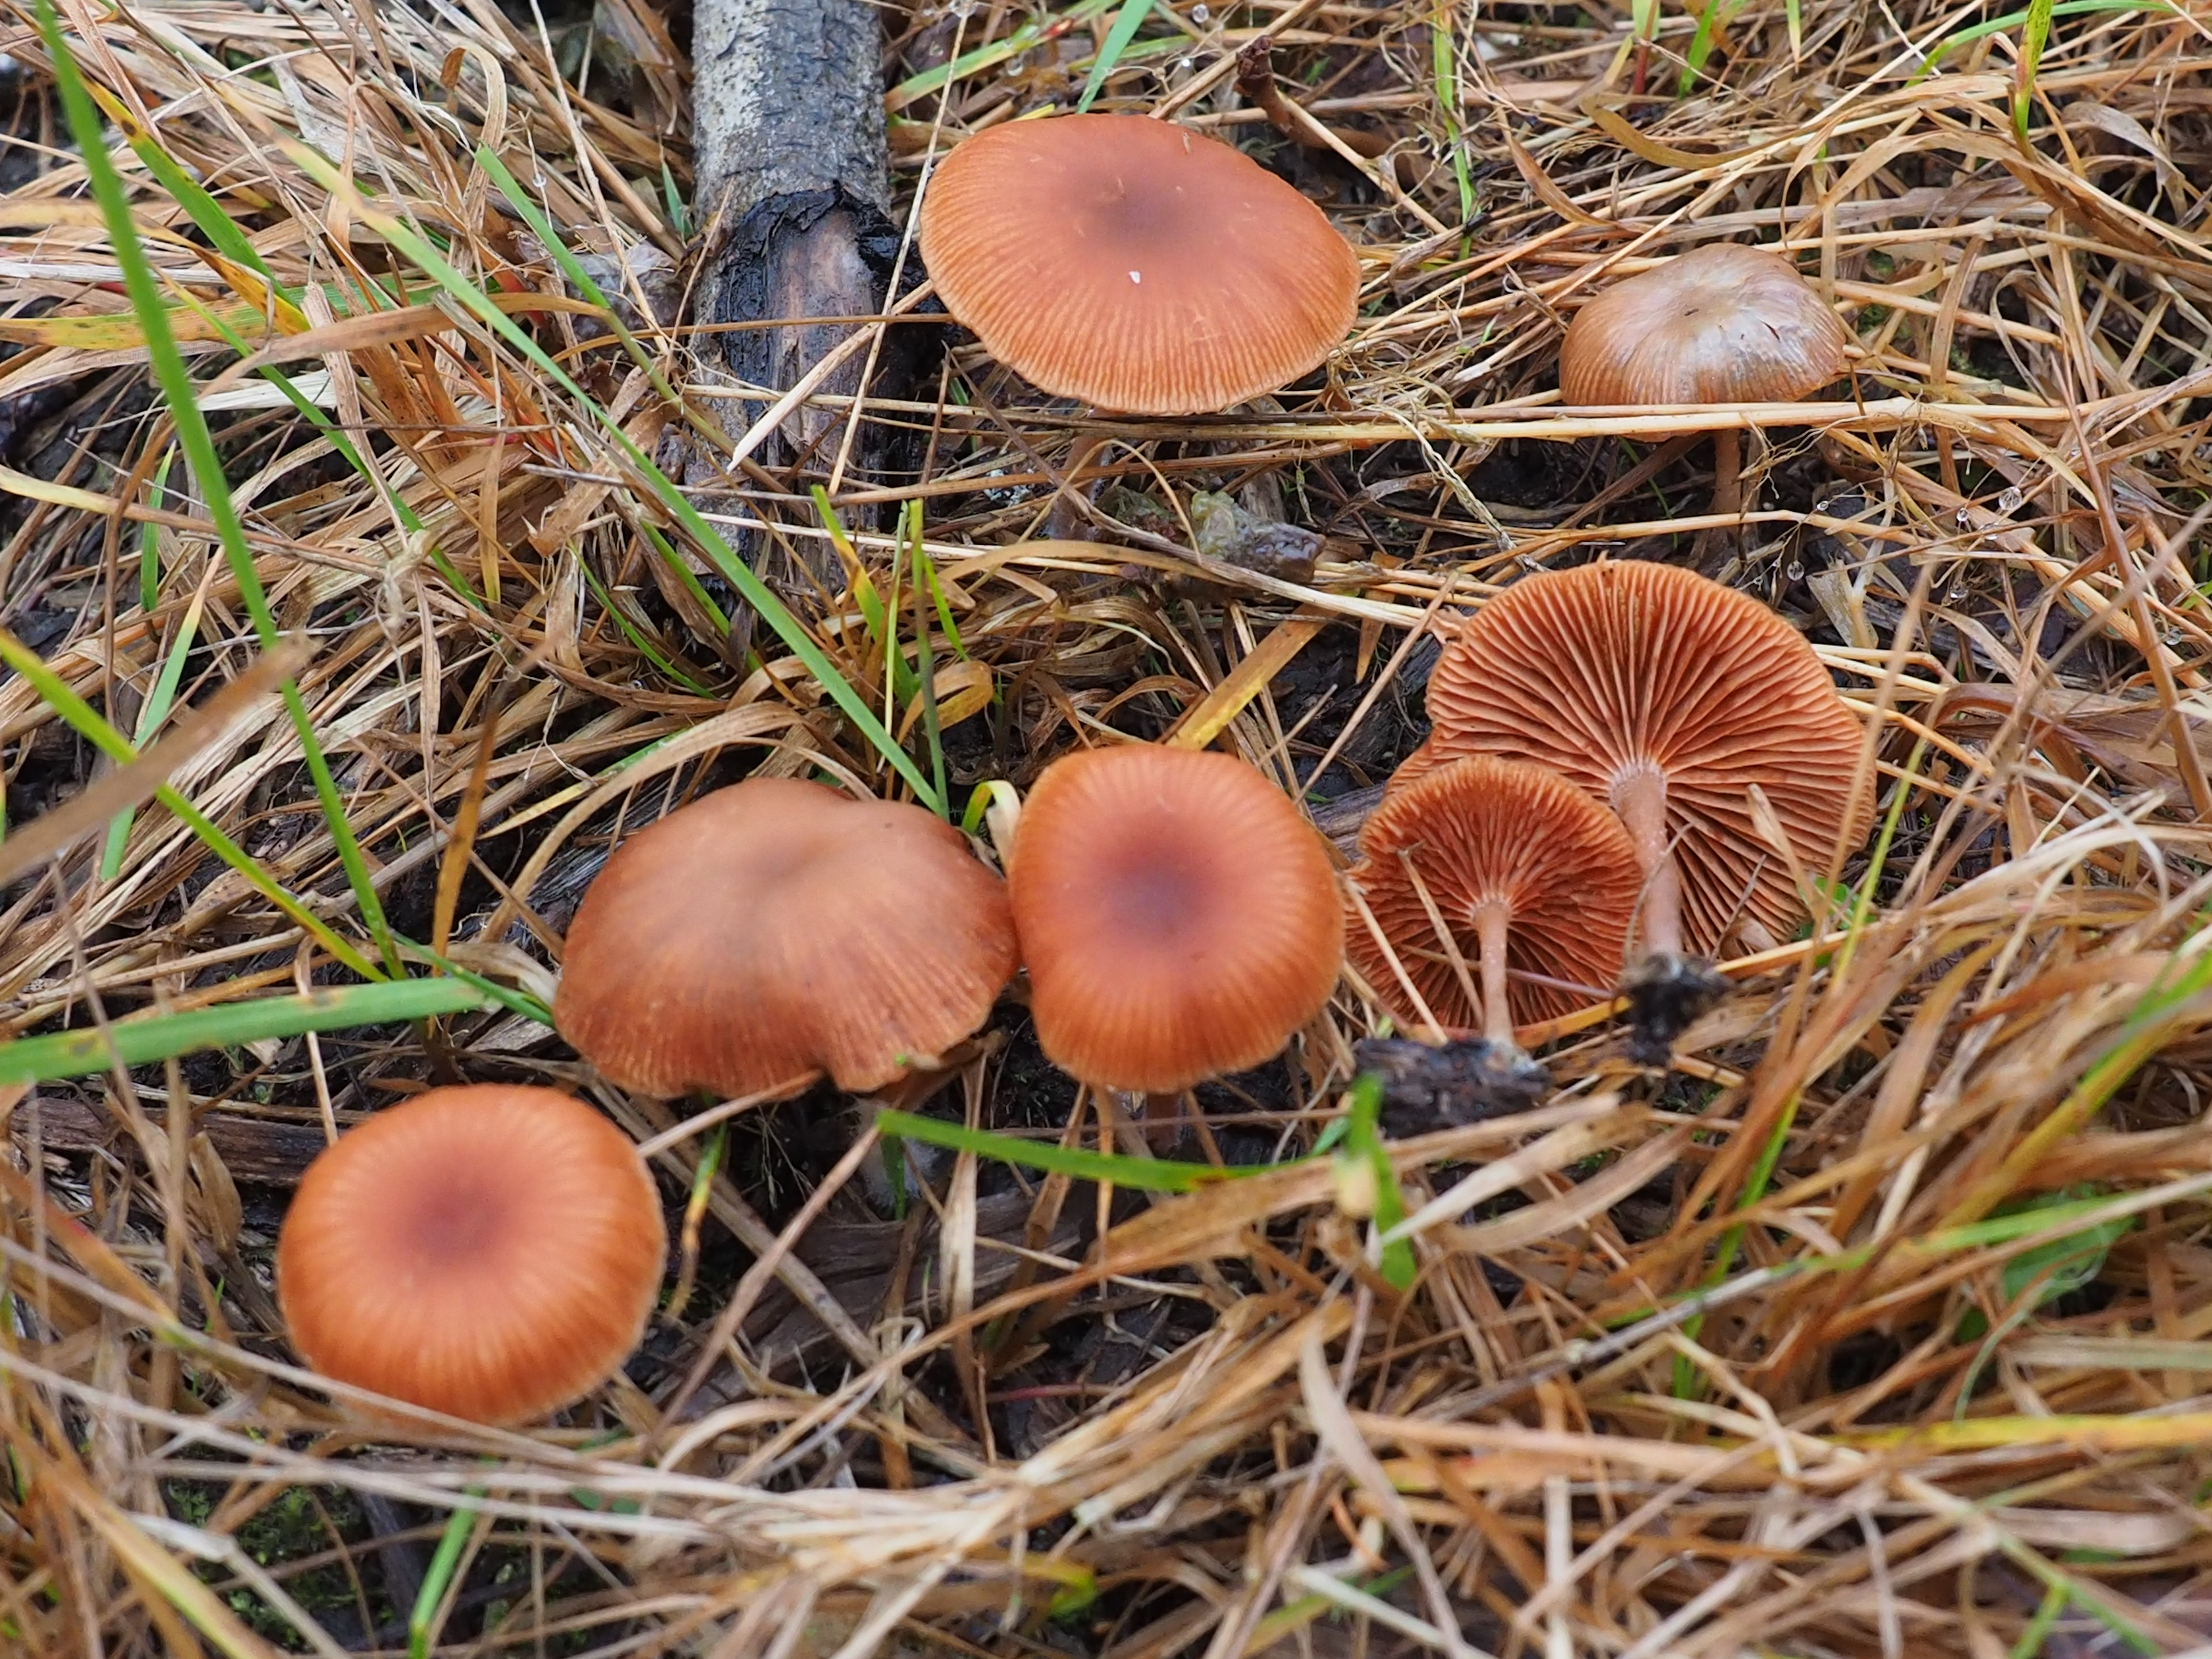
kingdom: Fungi
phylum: Basidiomycota
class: Agaricomycetes
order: Agaricales
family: Tubariaceae
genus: Tubaria
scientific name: Tubaria furfuracea
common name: Scurfy twiglet
